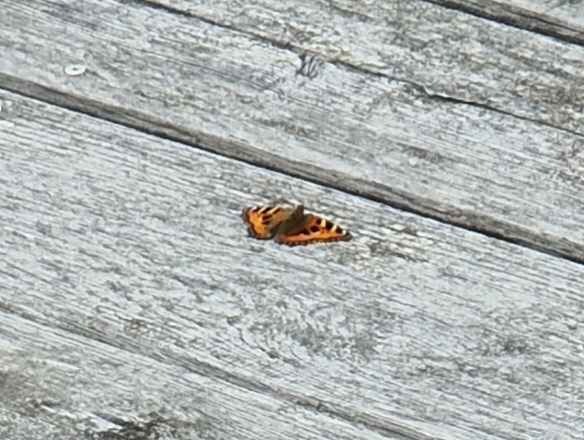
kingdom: Animalia
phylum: Arthropoda
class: Insecta
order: Lepidoptera
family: Nymphalidae
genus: Aglais
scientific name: Aglais urticae
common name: Nældens takvinge
